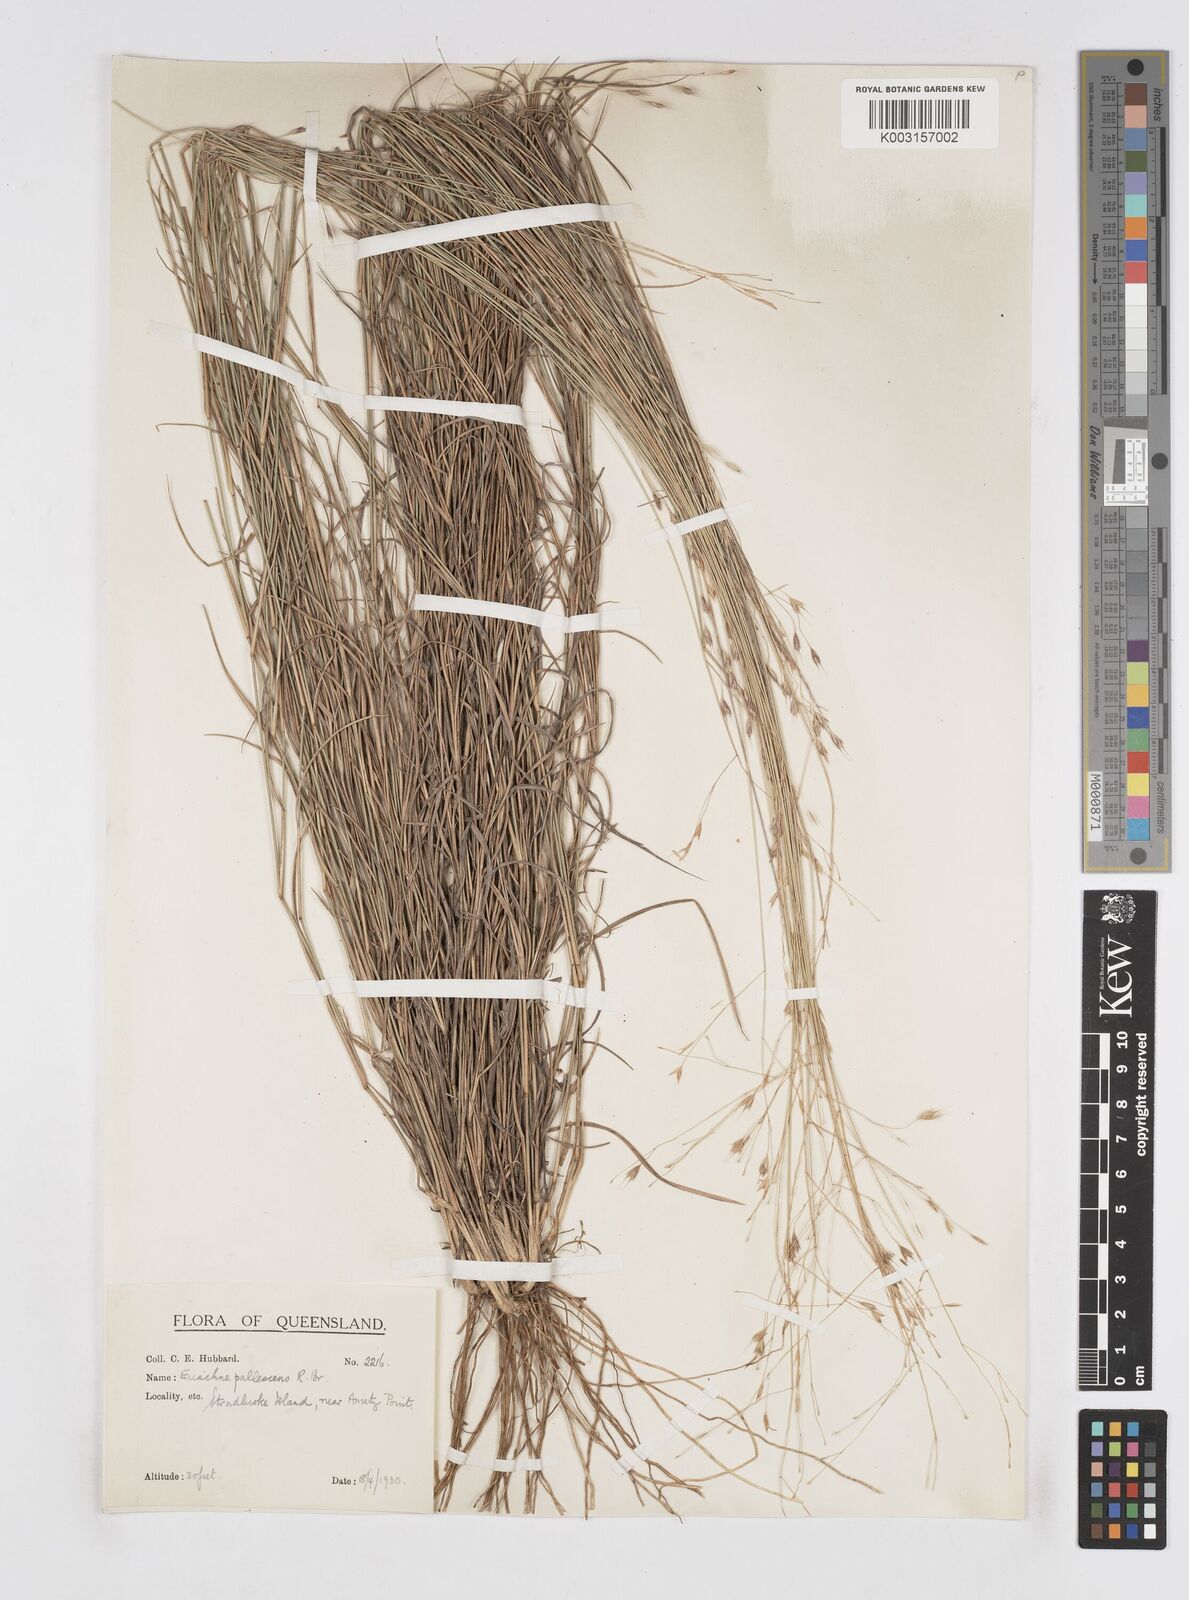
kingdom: Plantae
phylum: Tracheophyta
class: Liliopsida
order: Poales
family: Poaceae
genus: Eriachne
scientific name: Eriachne pallescens
